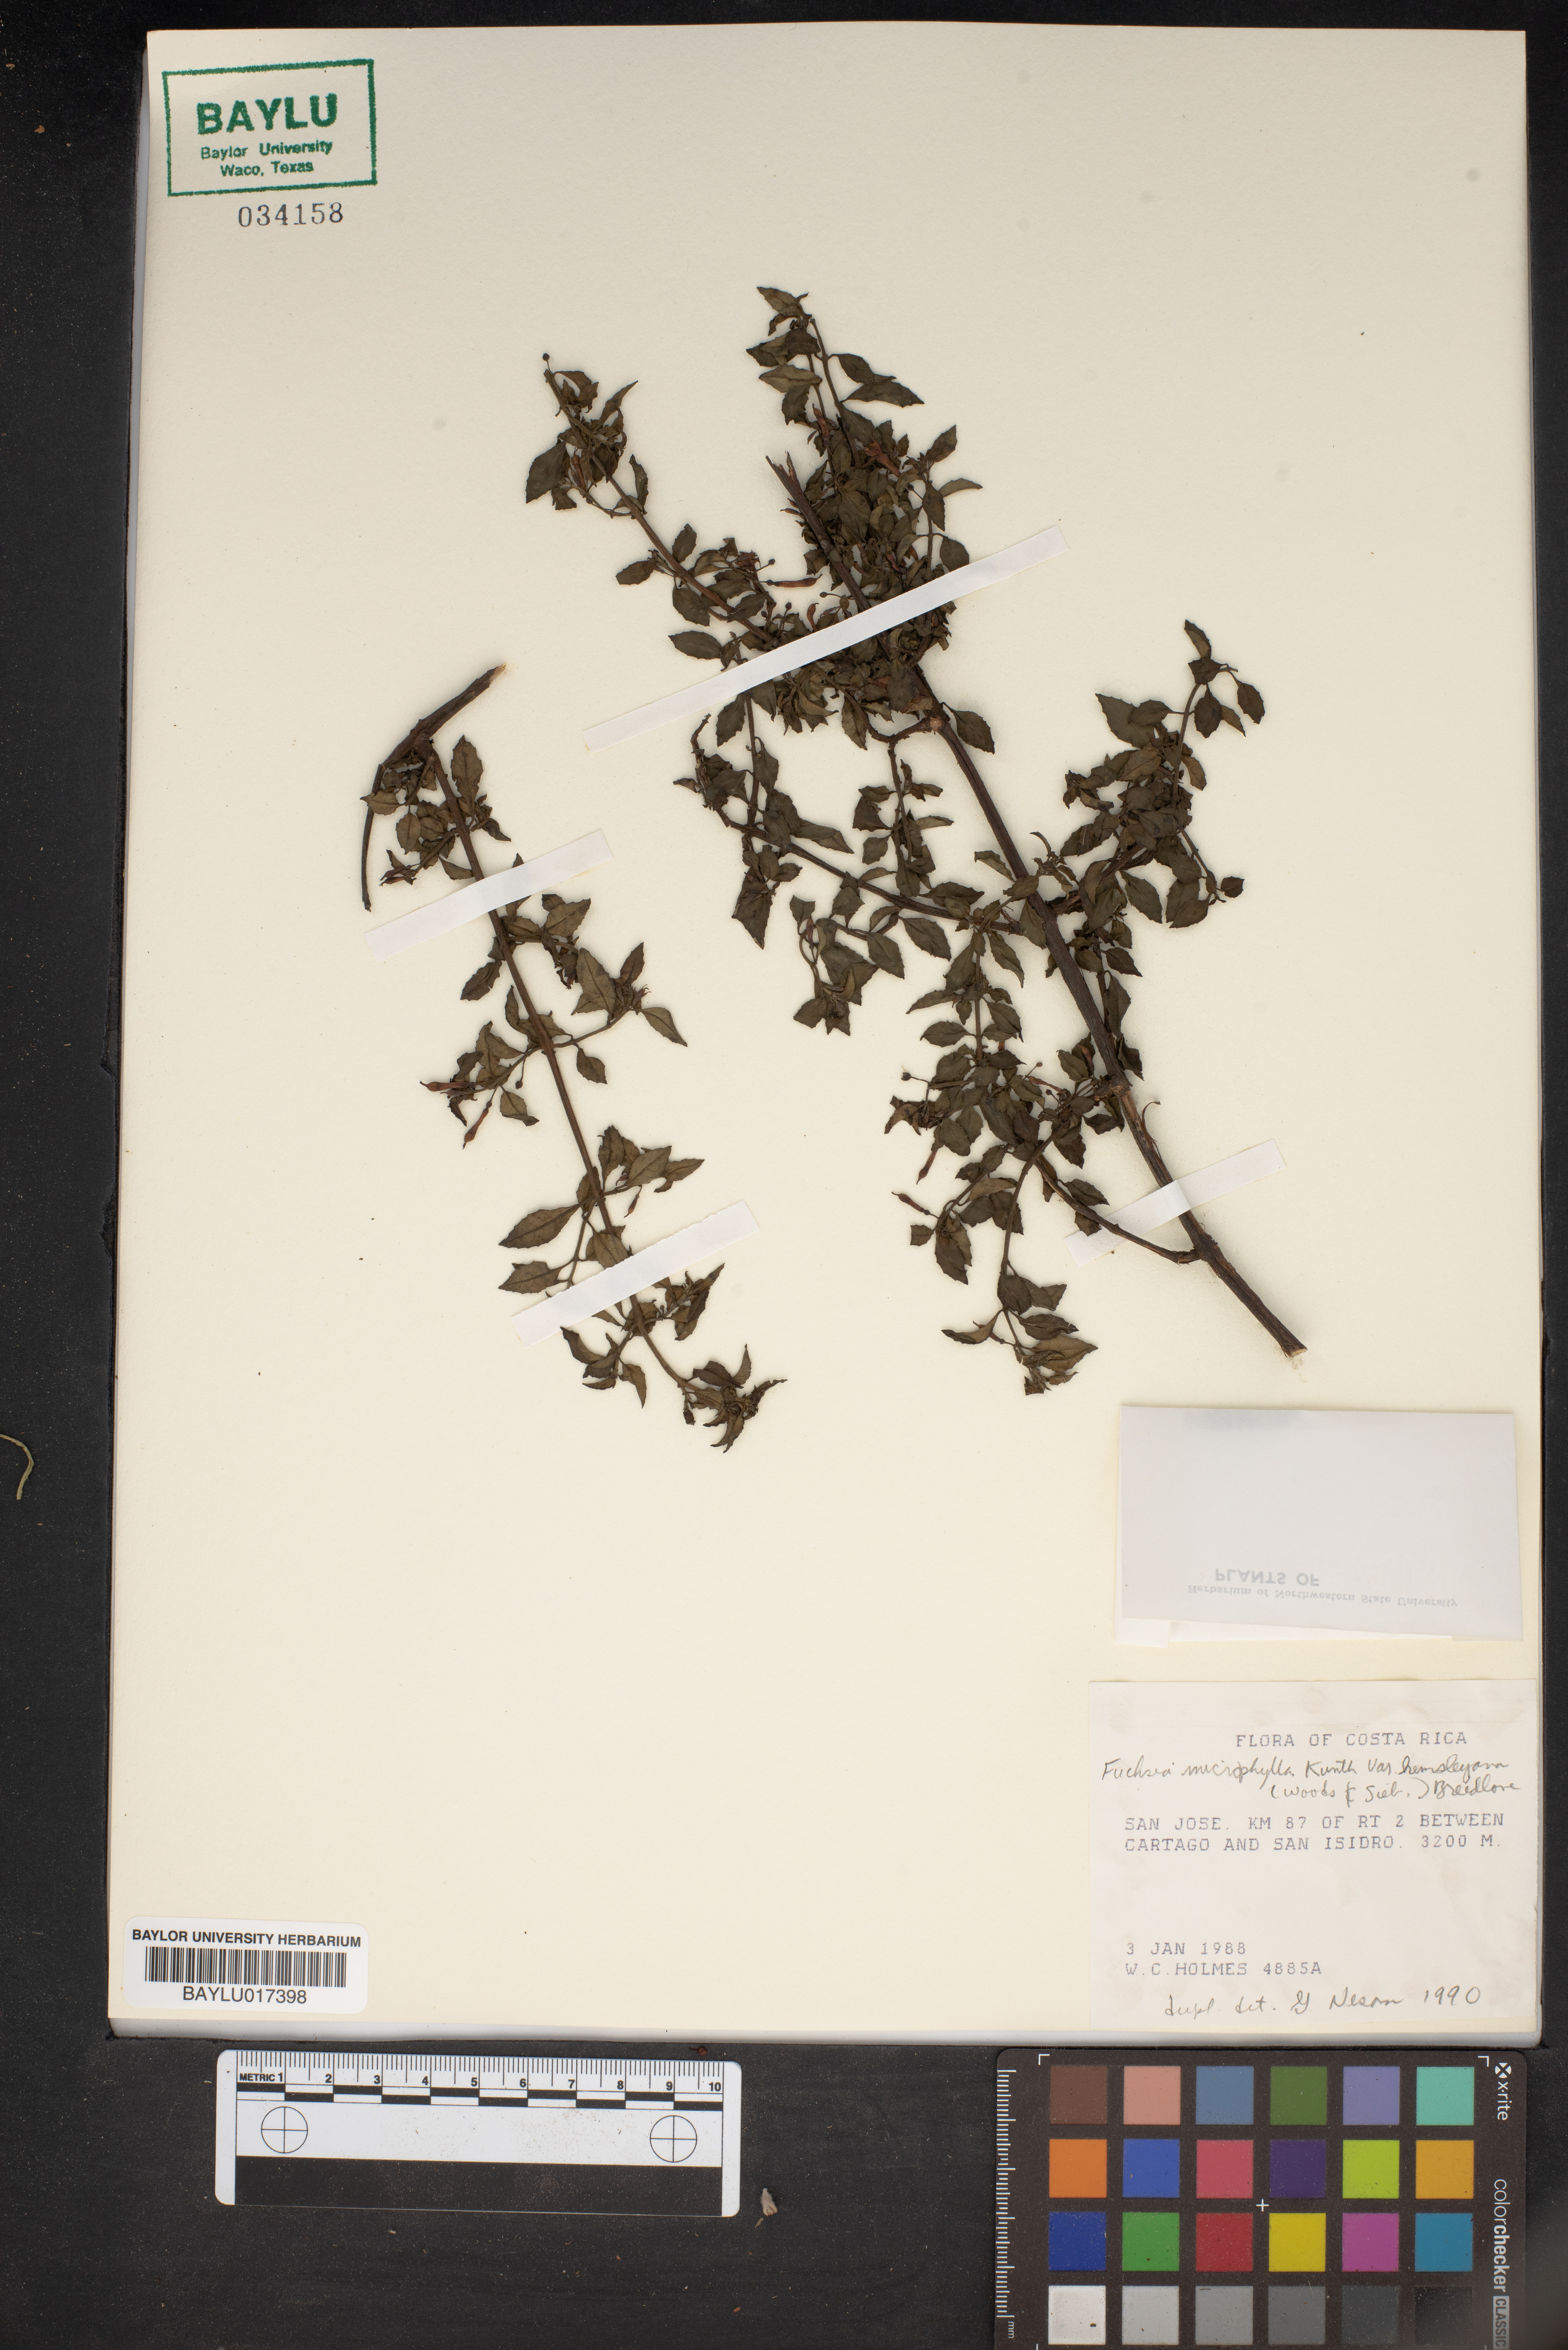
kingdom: Plantae
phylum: Tracheophyta
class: Magnoliopsida
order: Myrtales
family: Onagraceae
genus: Fuchsia
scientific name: Fuchsia microphylla
